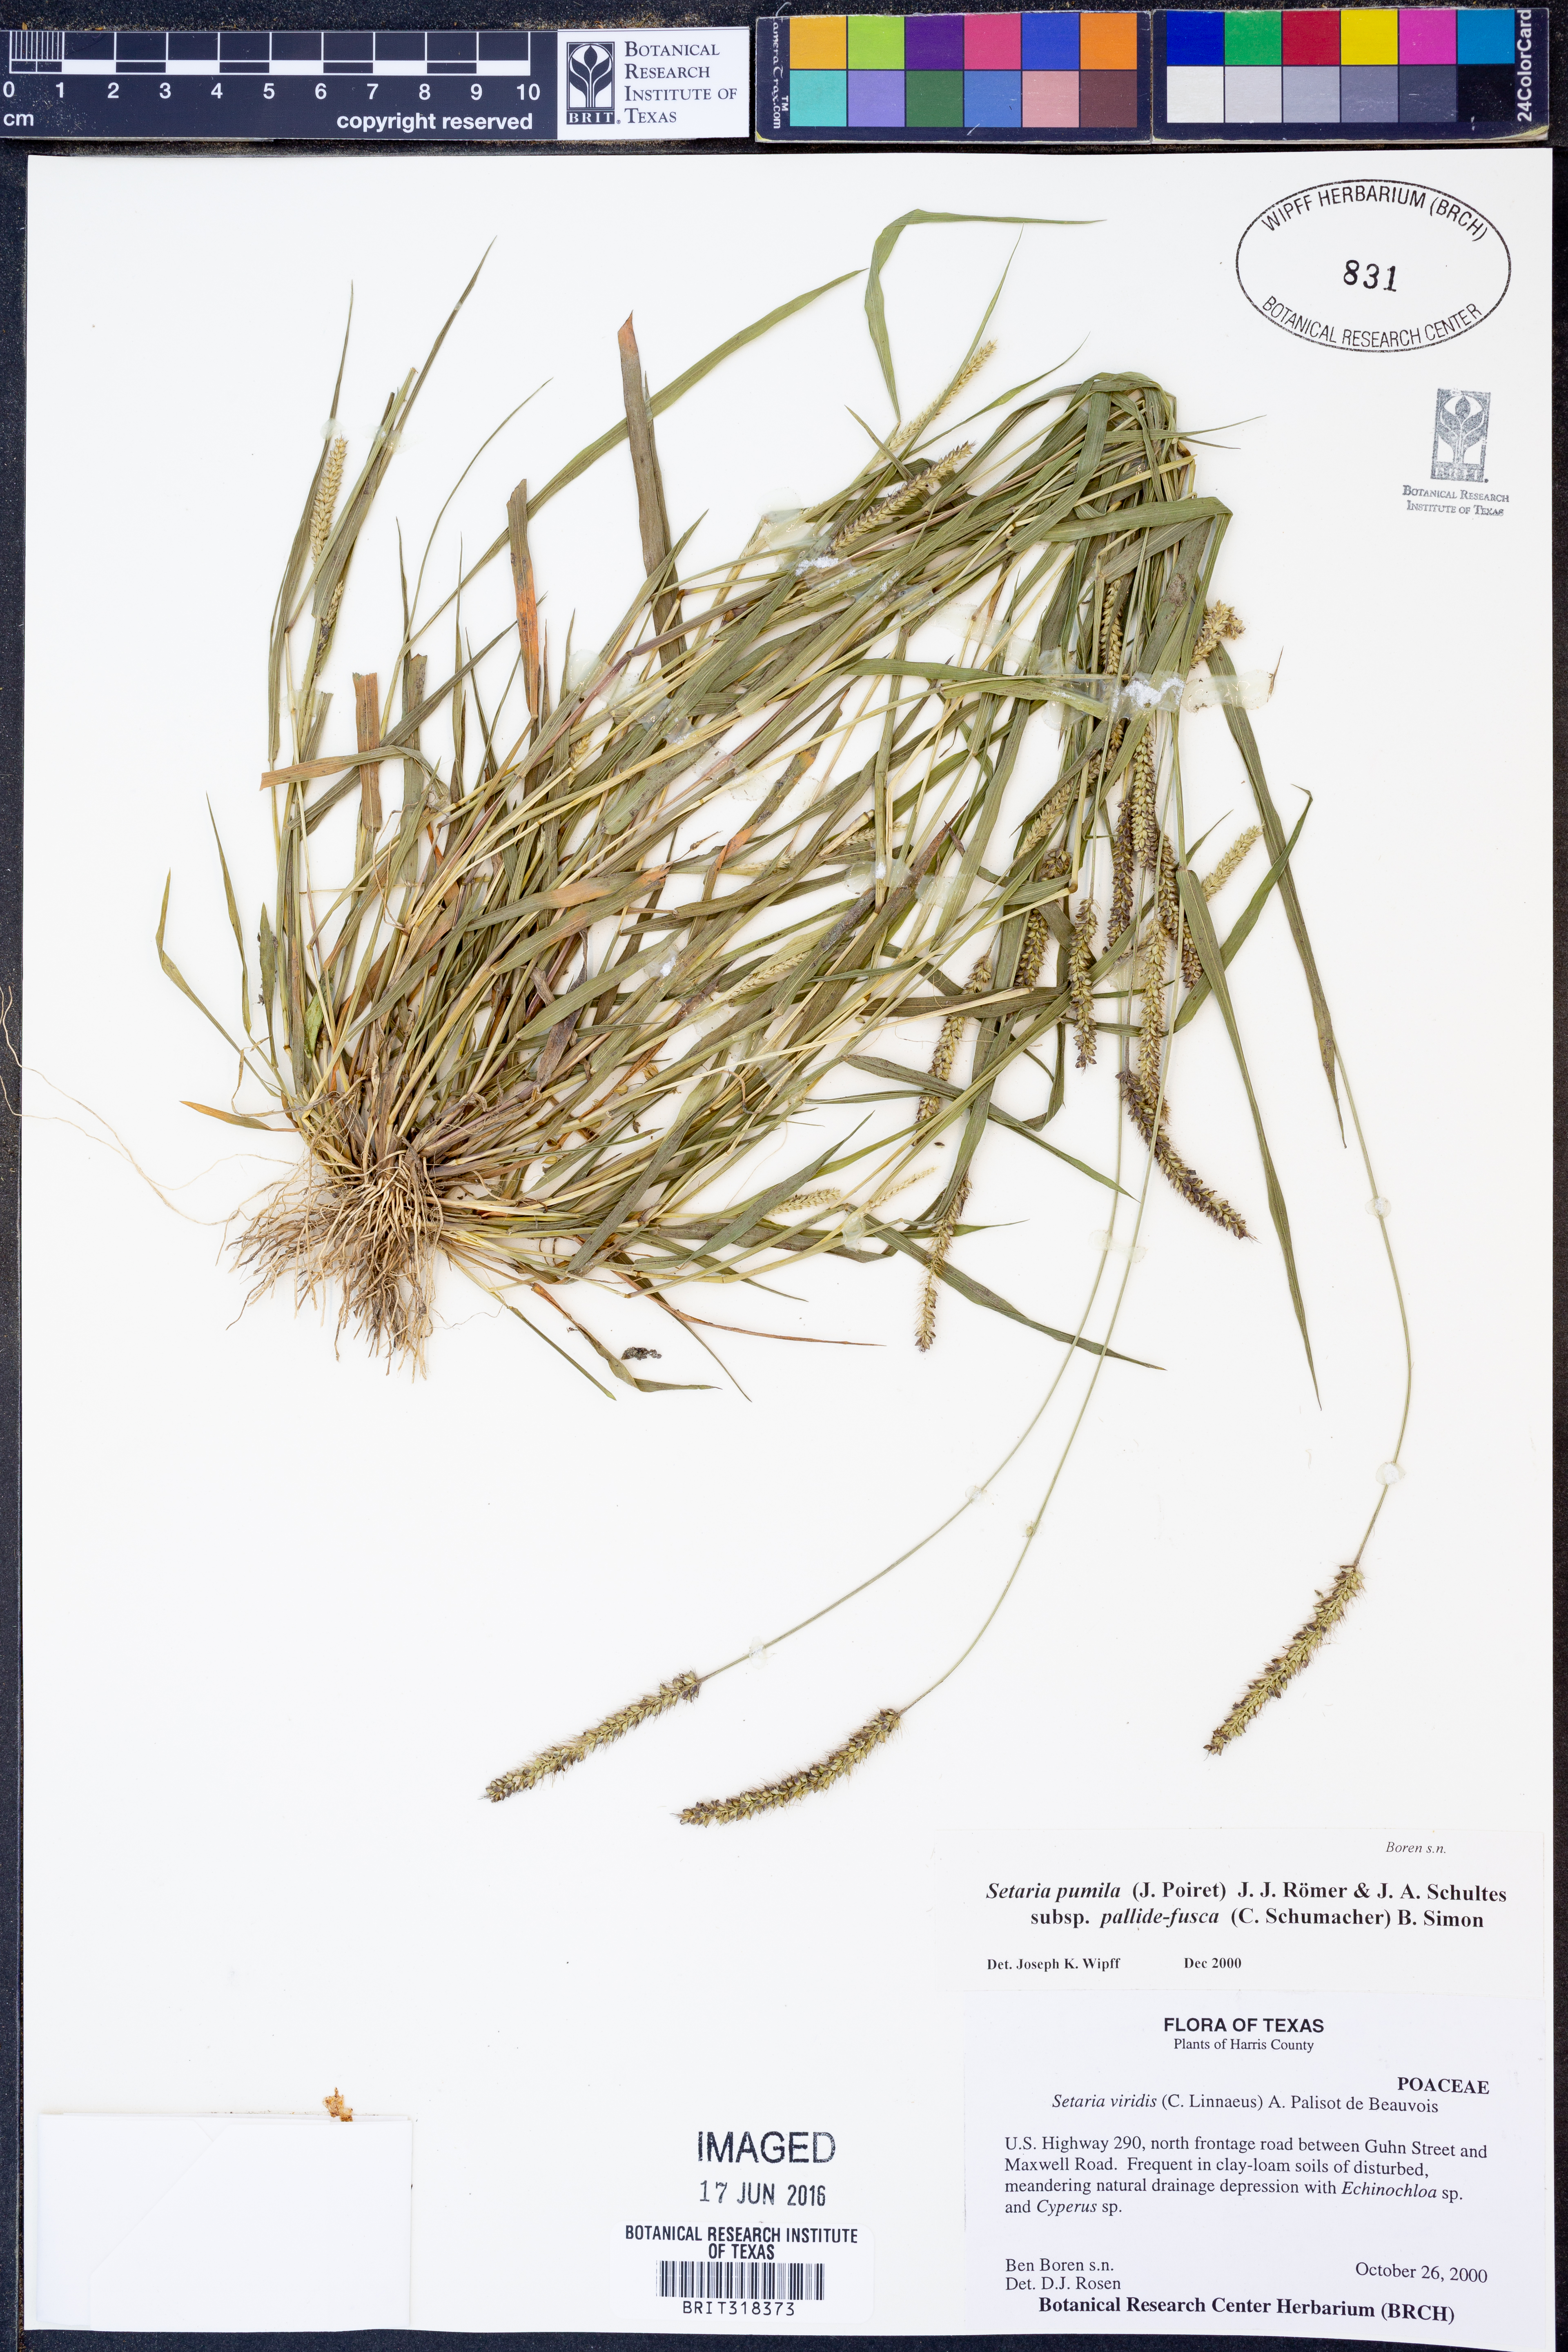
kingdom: Plantae
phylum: Tracheophyta
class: Liliopsida
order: Poales
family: Poaceae
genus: Setaria
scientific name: Setaria pumila
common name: Yellow bristle-grass
